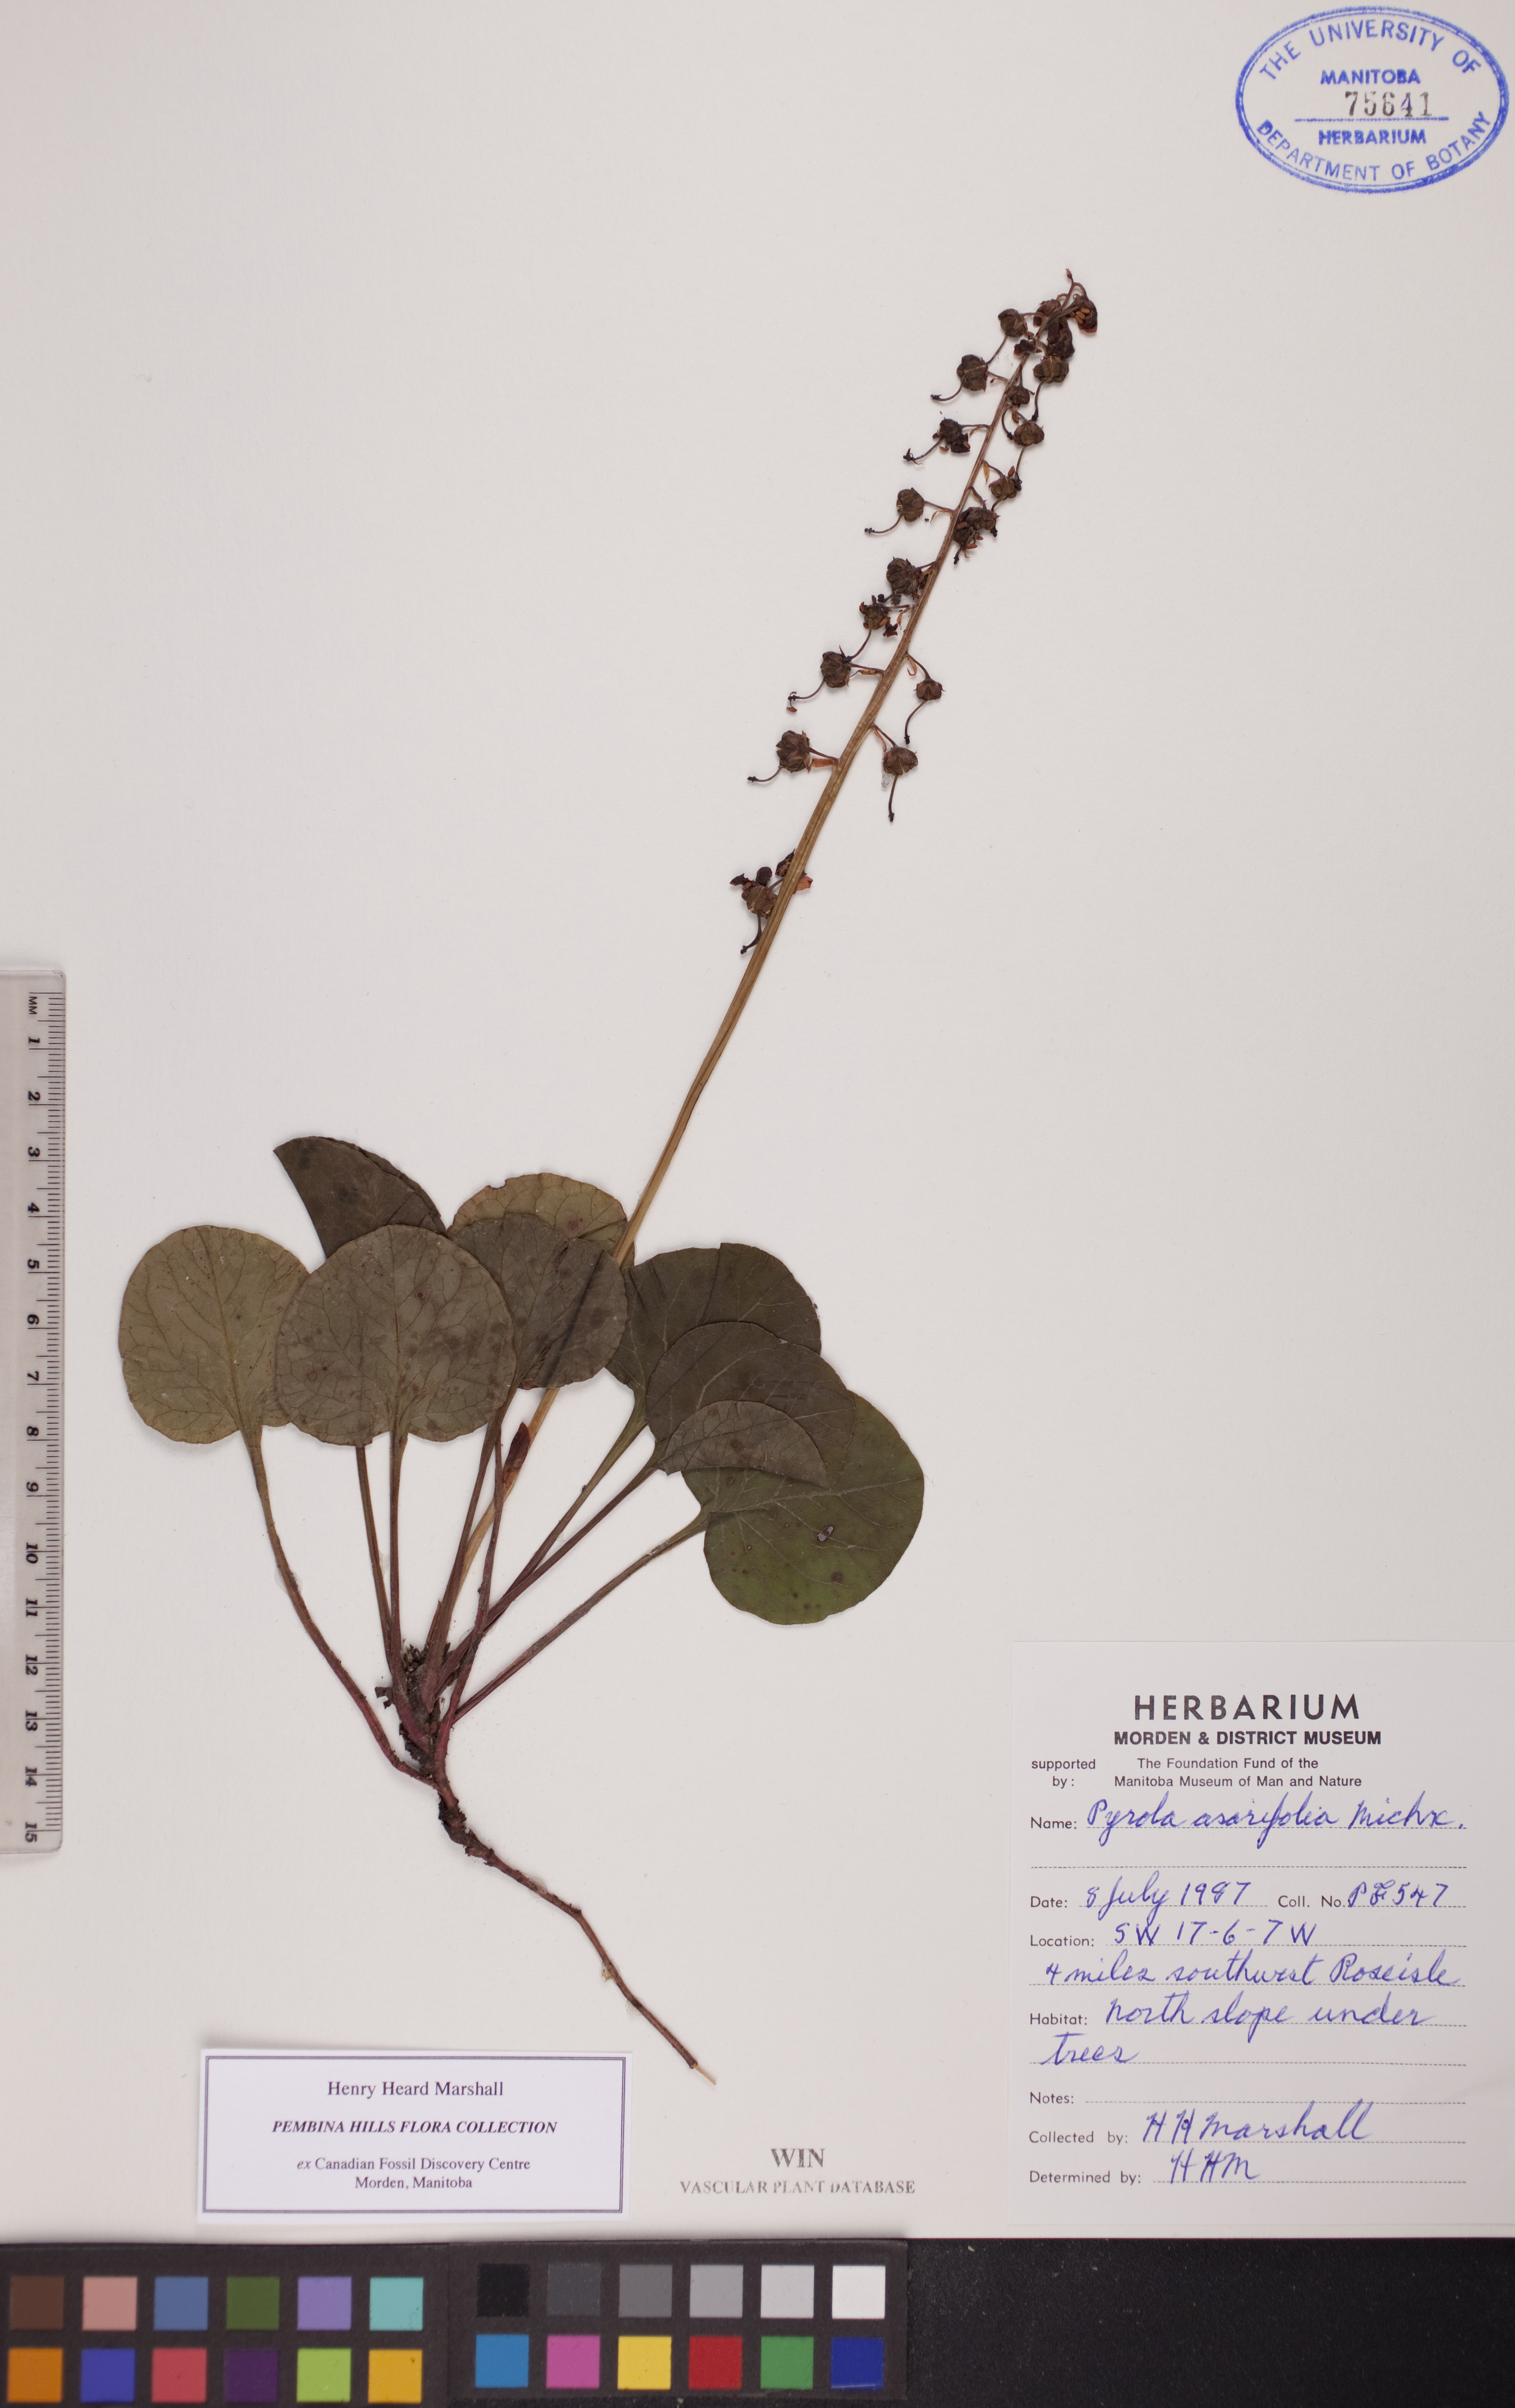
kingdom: Plantae
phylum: Tracheophyta
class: Magnoliopsida
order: Ericales
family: Ericaceae
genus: Pyrola
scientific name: Pyrola asarifolia
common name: Bog wintergreen
